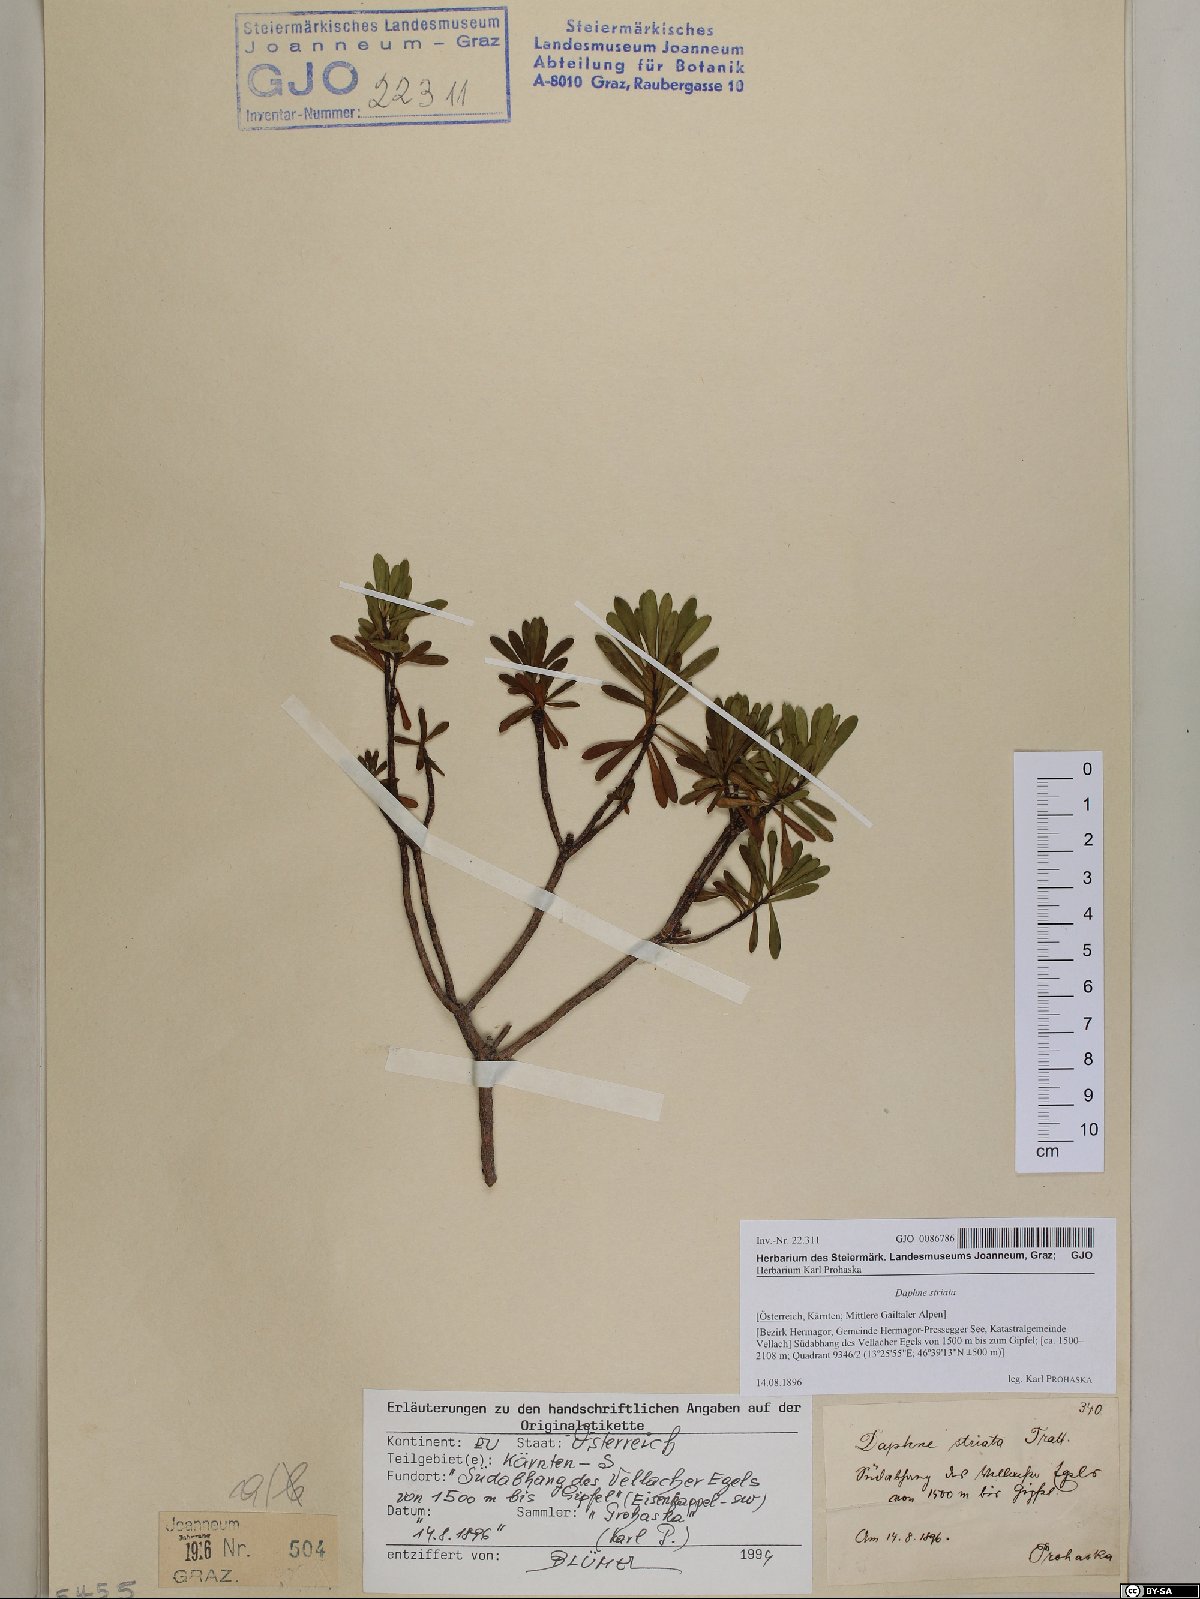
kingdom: Plantae
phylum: Tracheophyta
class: Magnoliopsida
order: Malvales
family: Thymelaeaceae
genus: Daphne
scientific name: Daphne striata
